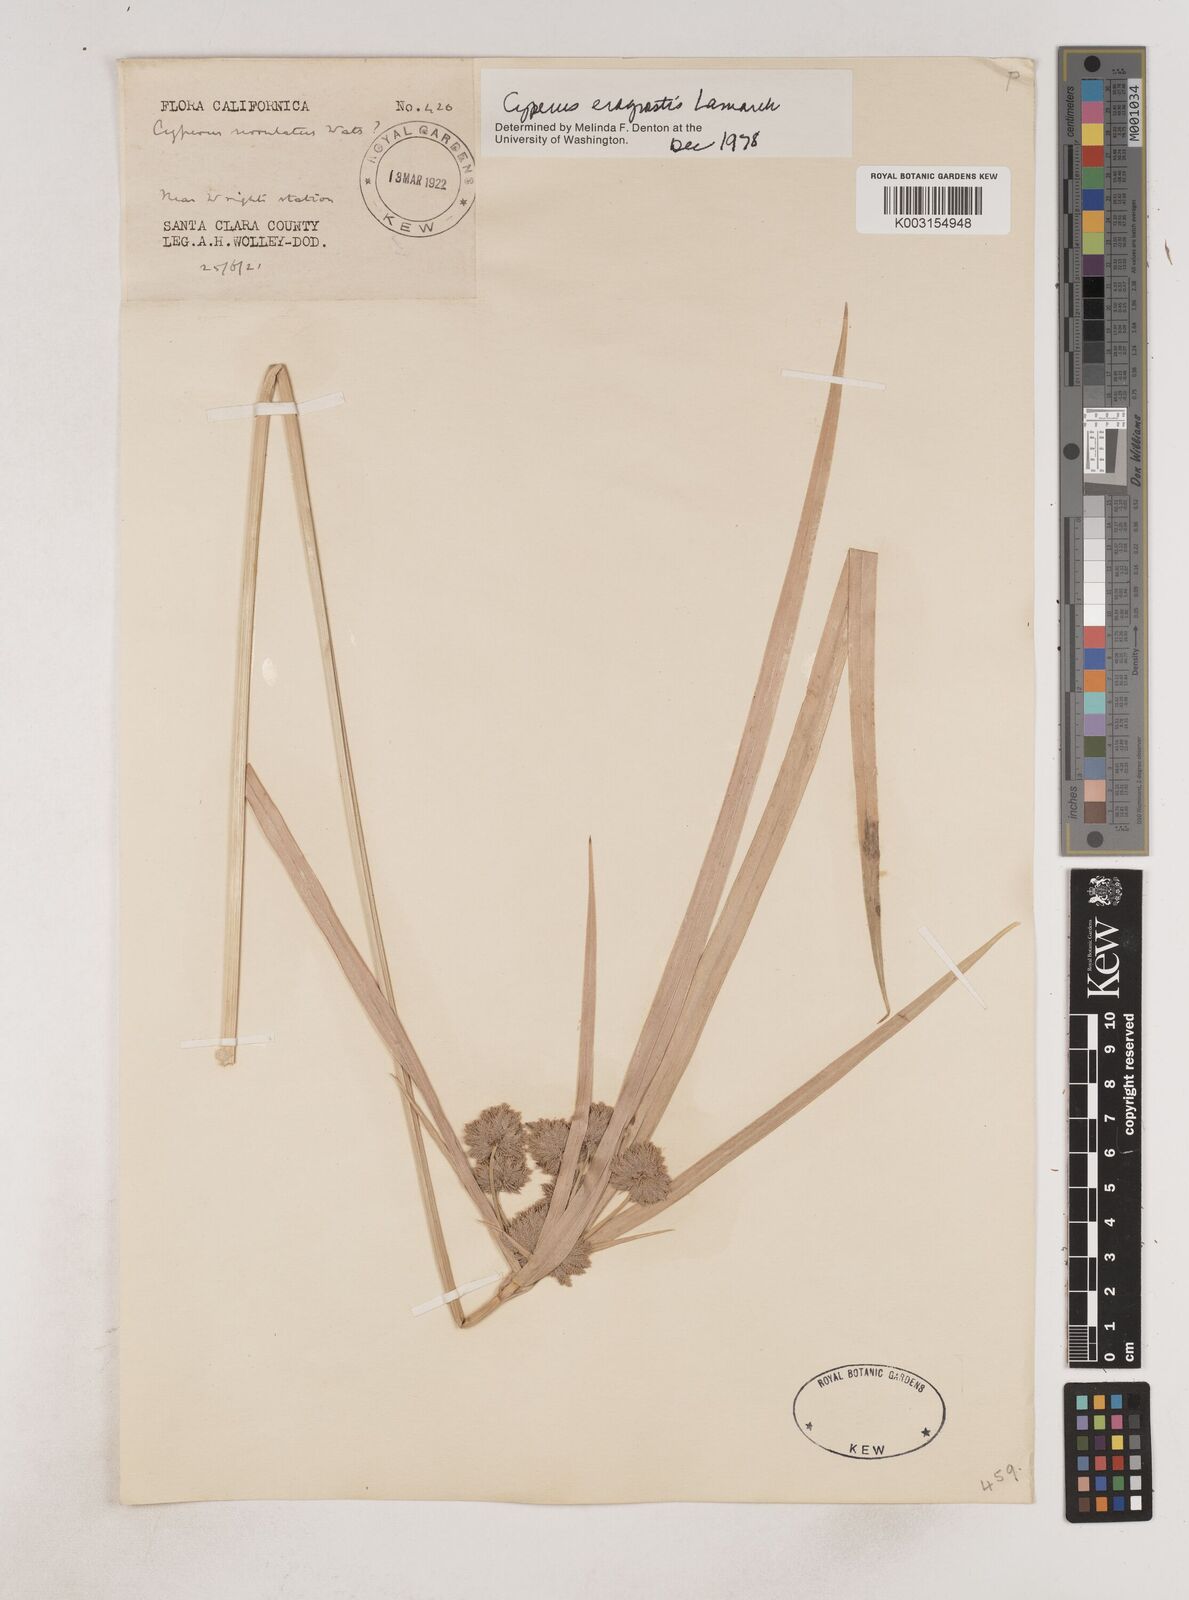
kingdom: Plantae
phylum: Tracheophyta
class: Liliopsida
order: Poales
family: Cyperaceae
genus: Cyperus
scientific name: Cyperus eragrostis
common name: Tall flatsedge
